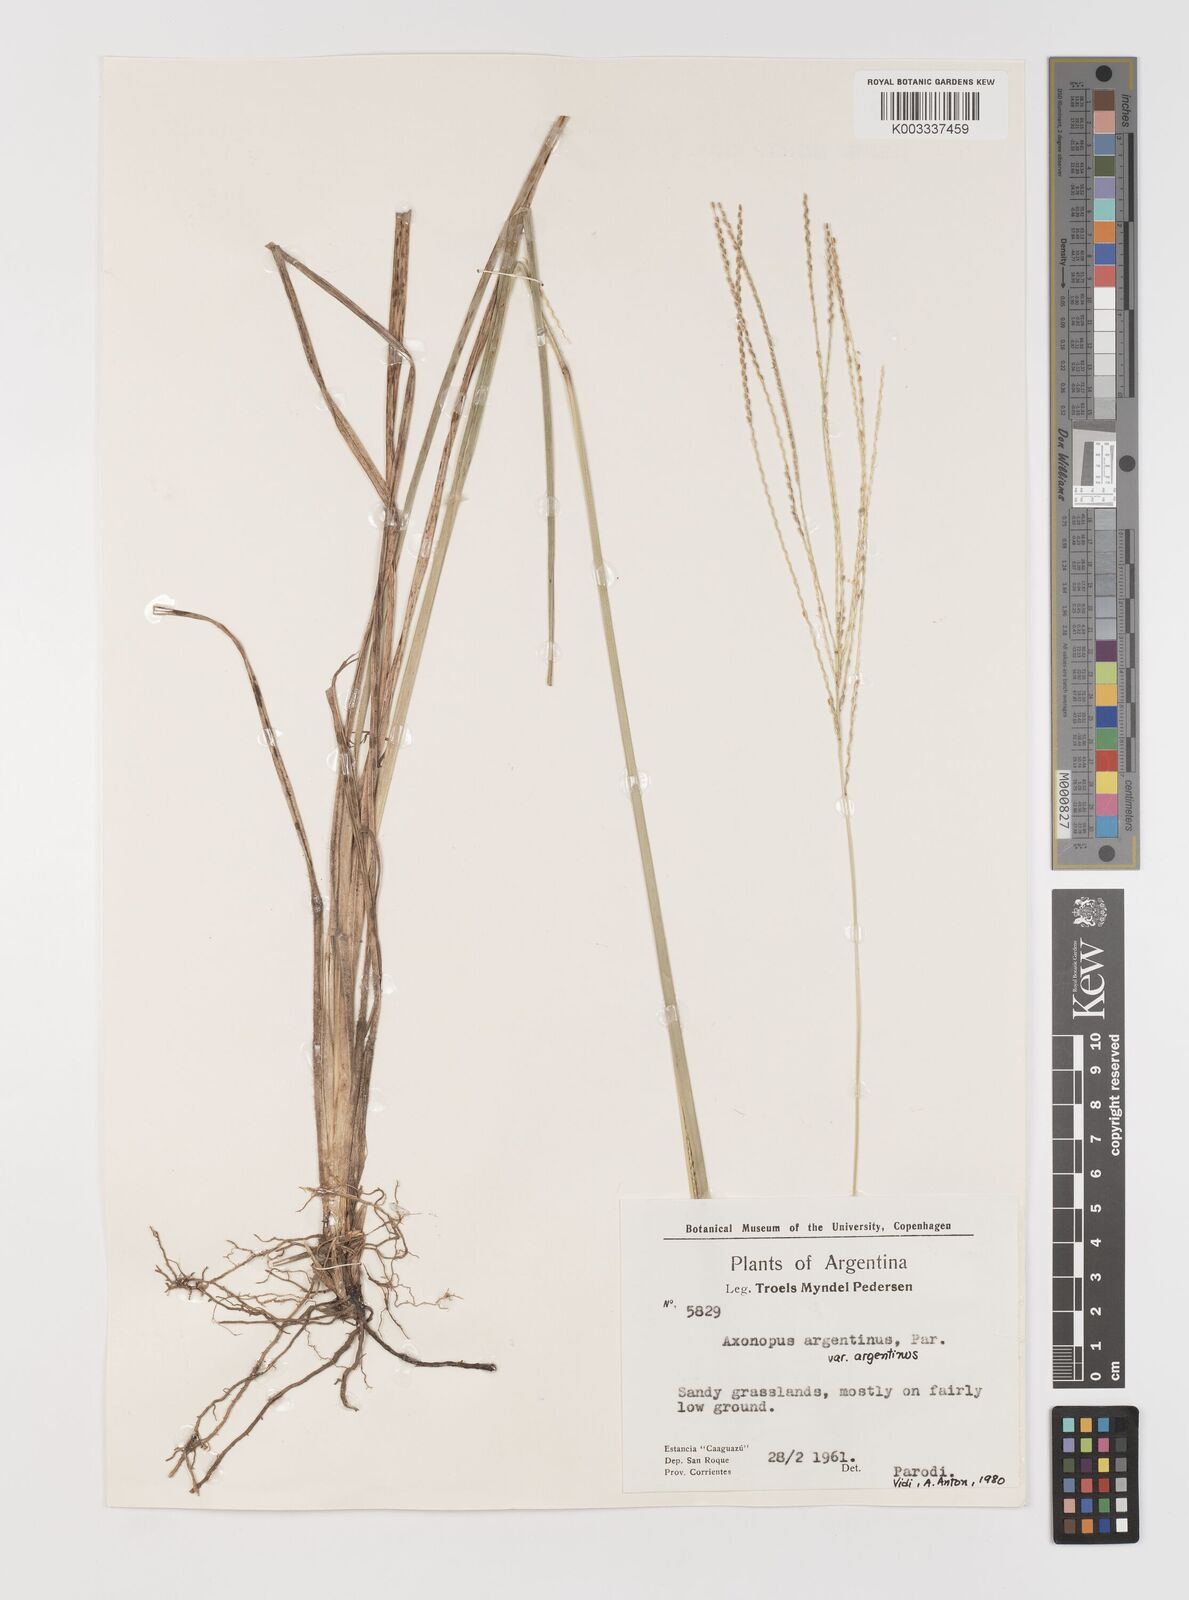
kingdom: Plantae
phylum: Tracheophyta
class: Liliopsida
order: Poales
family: Poaceae
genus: Axonopus
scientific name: Axonopus argentinus
